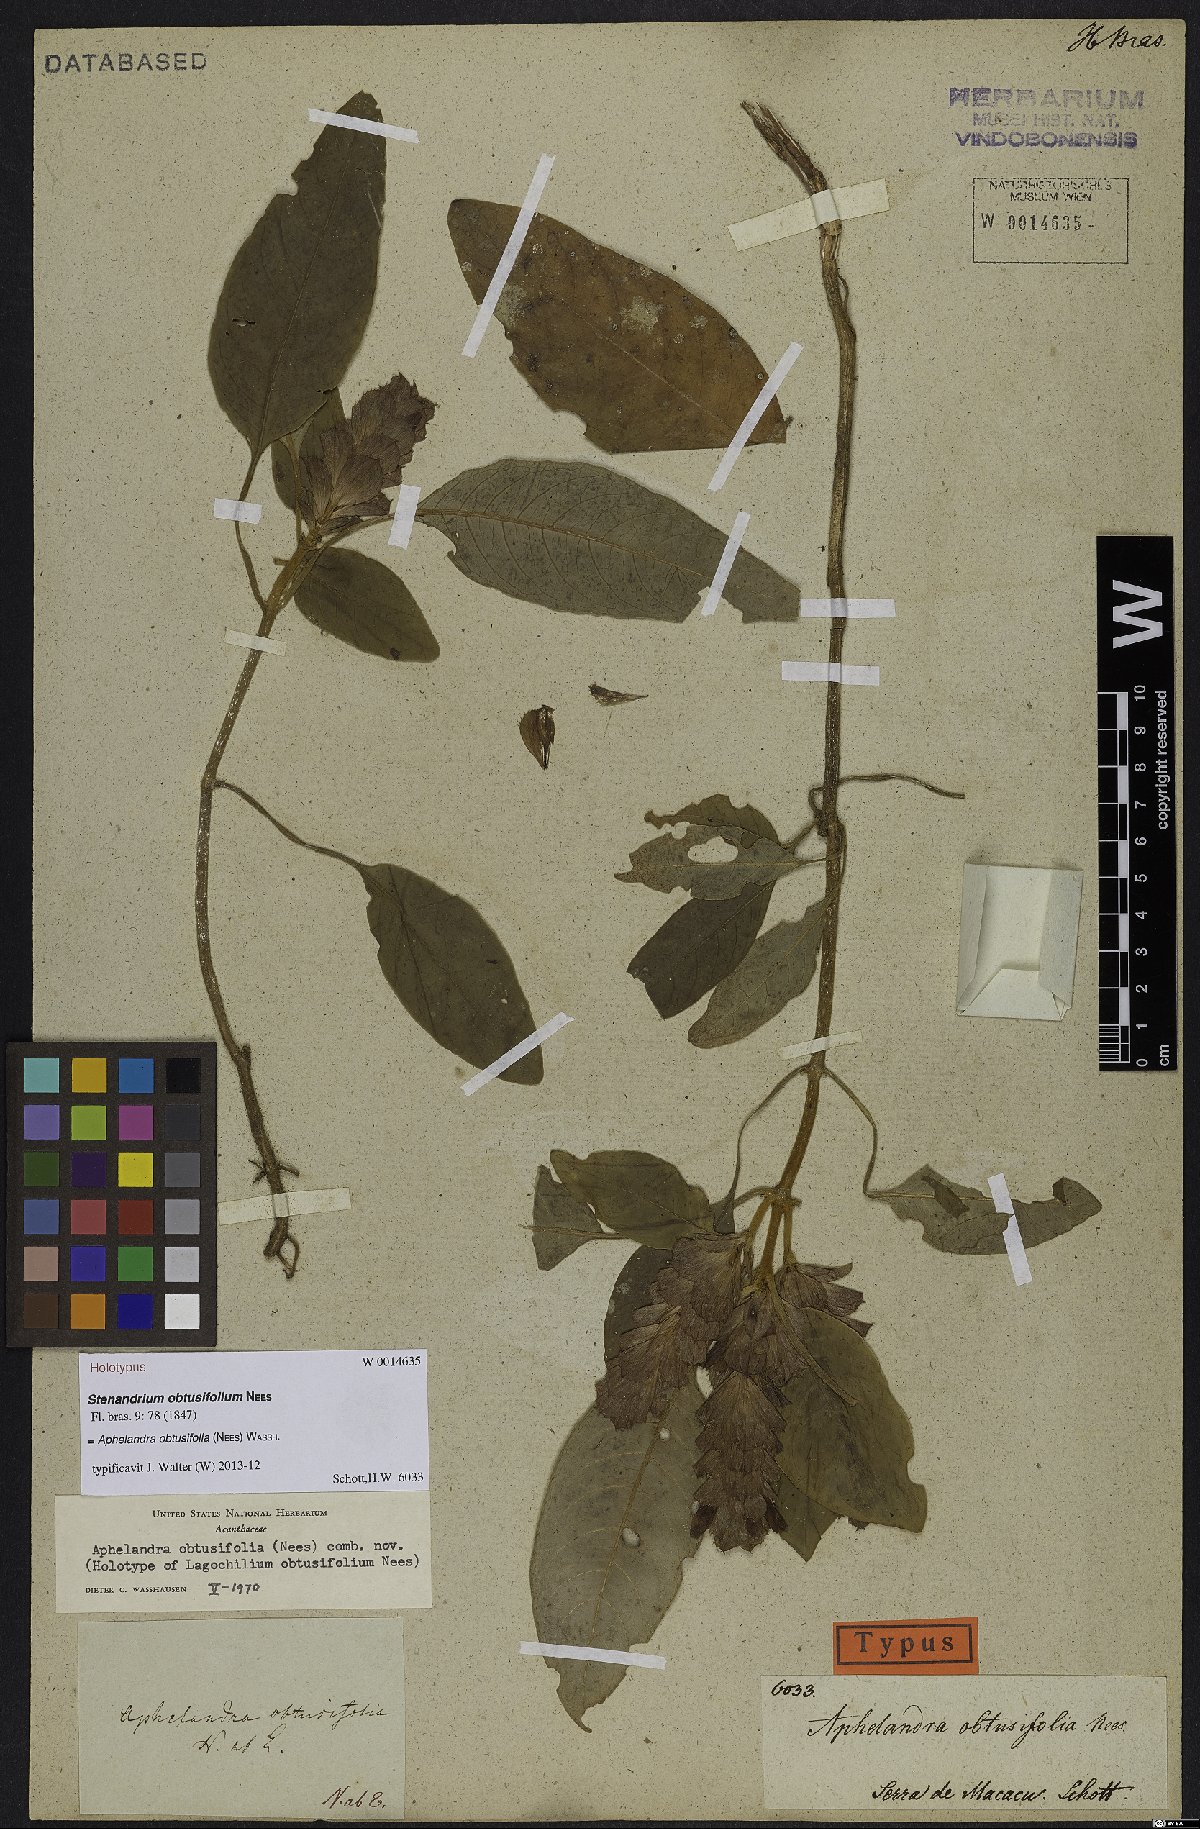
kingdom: Plantae
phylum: Tracheophyta
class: Magnoliopsida
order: Lamiales
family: Acanthaceae
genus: Aphelandra
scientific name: Aphelandra obtusifolia
